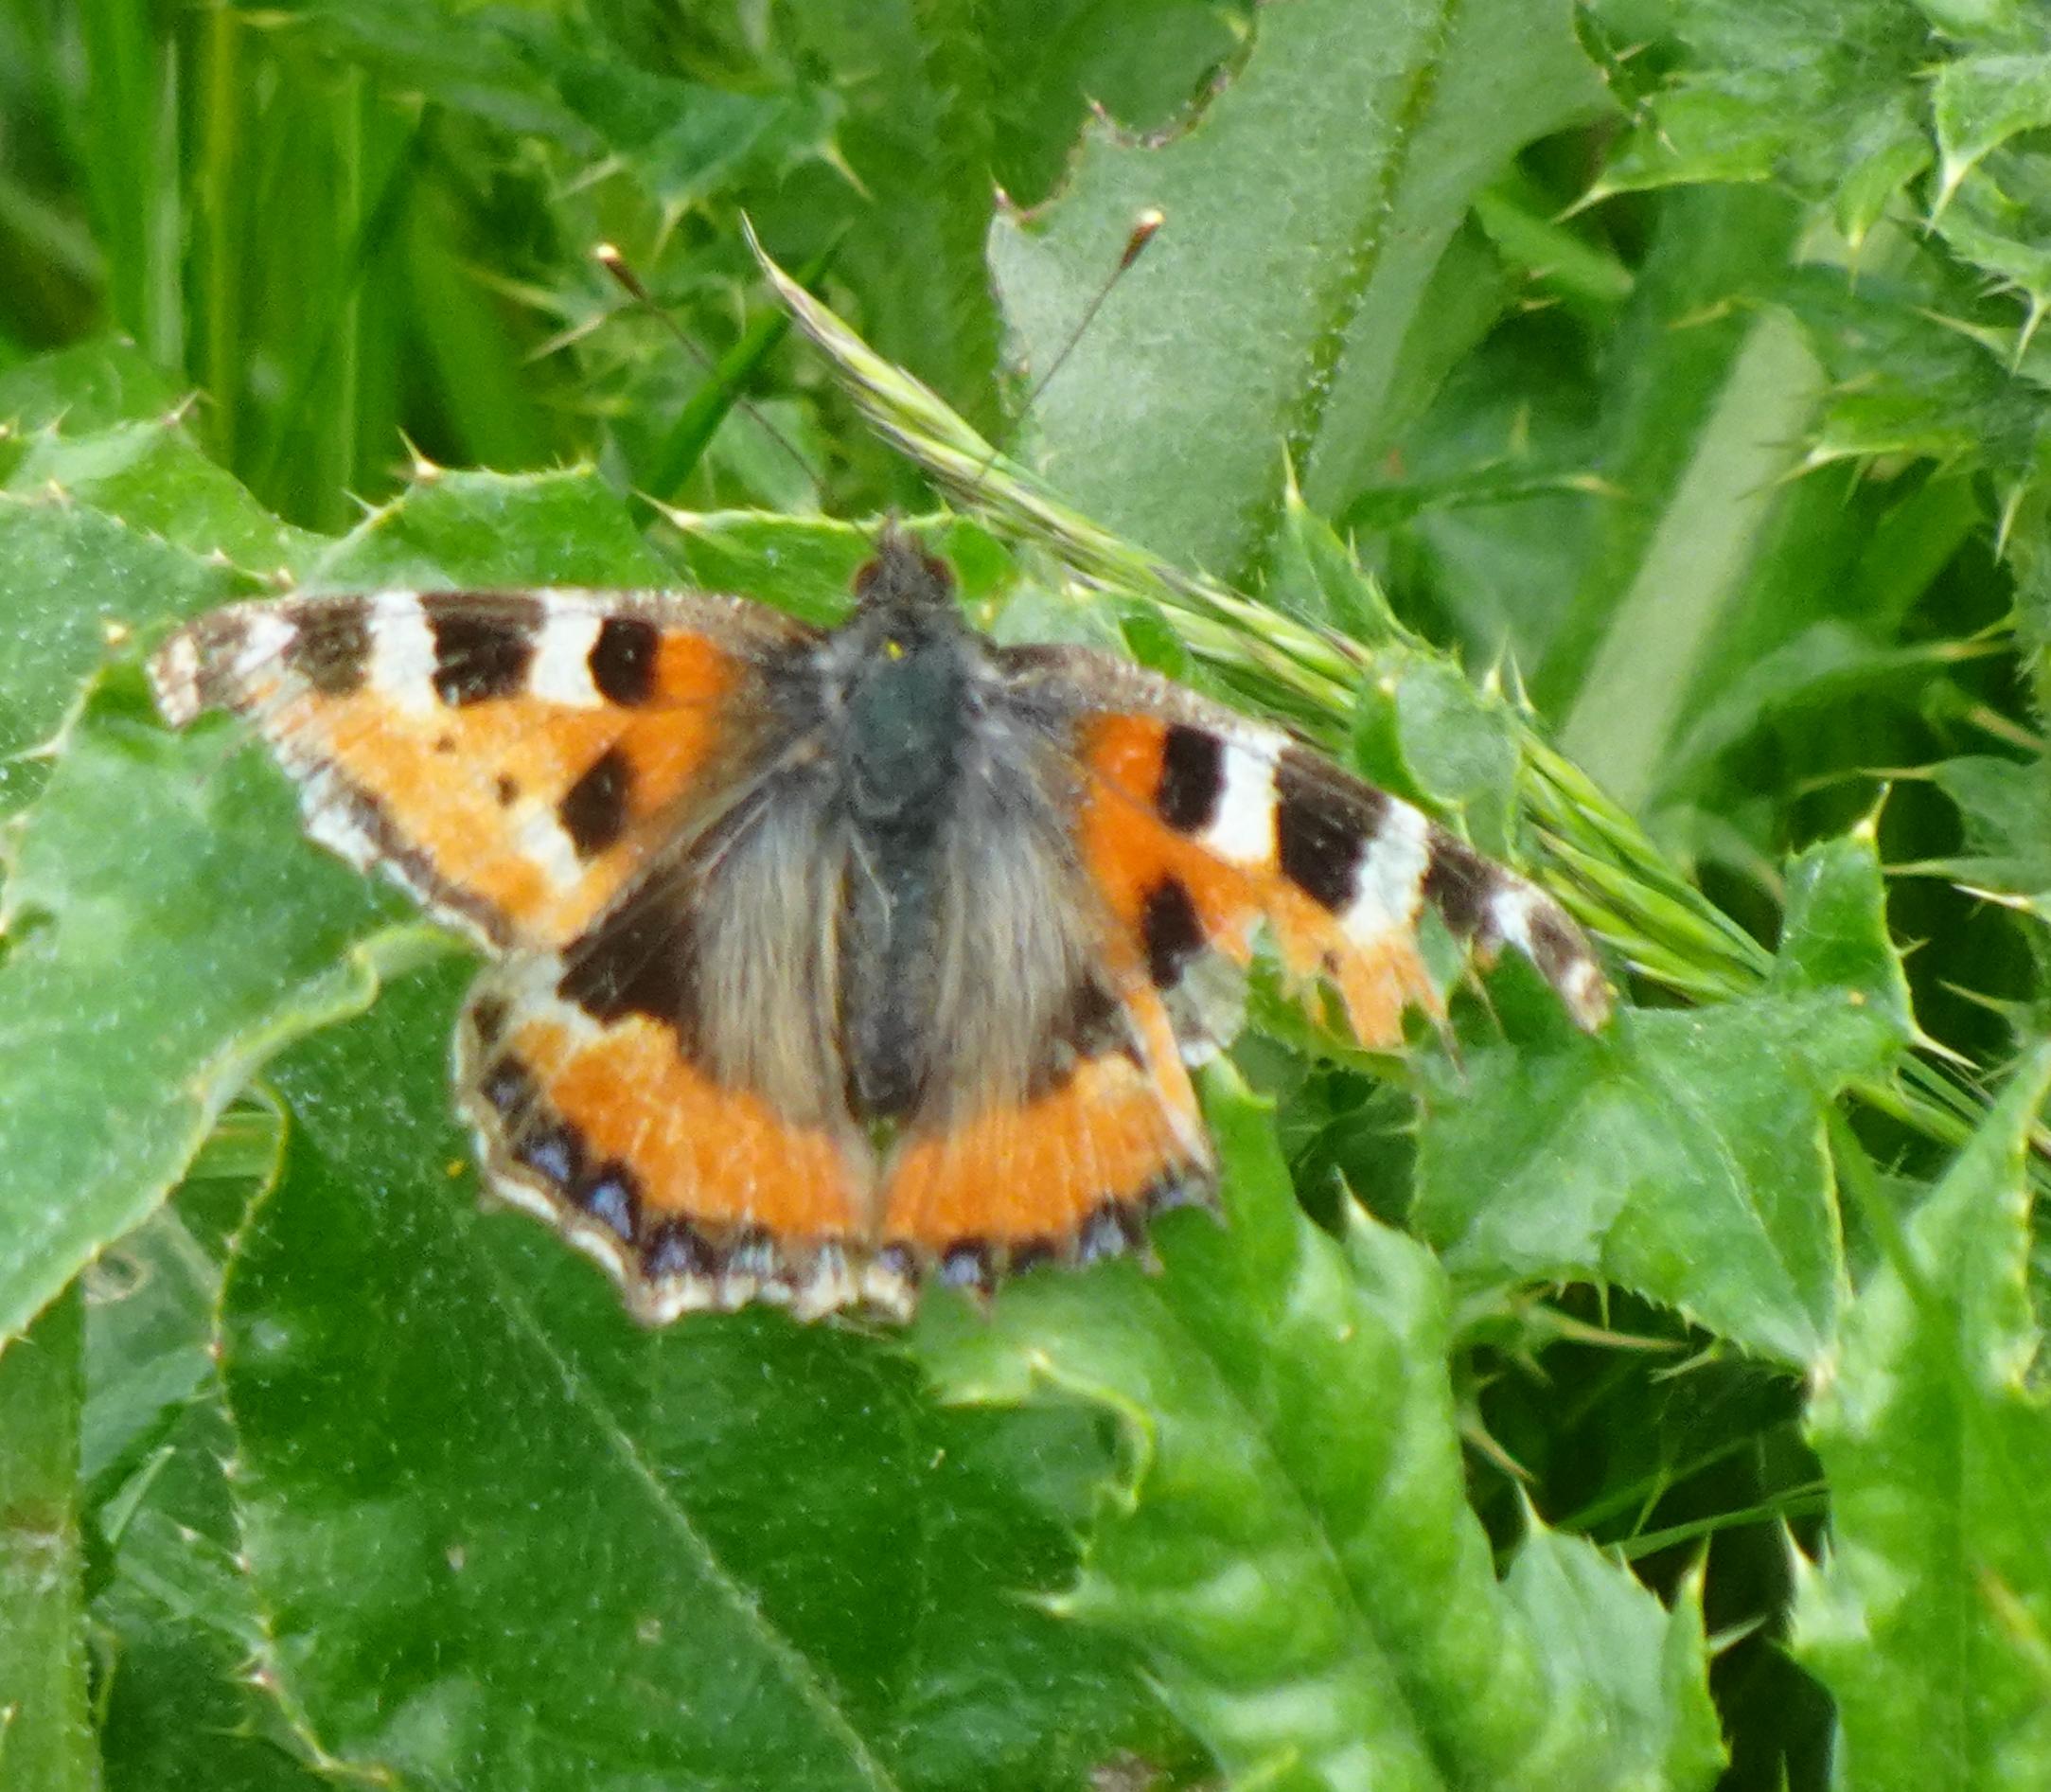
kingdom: Animalia
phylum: Arthropoda
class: Insecta
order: Lepidoptera
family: Nymphalidae
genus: Aglais
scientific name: Aglais urticae
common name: Nældens takvinge
